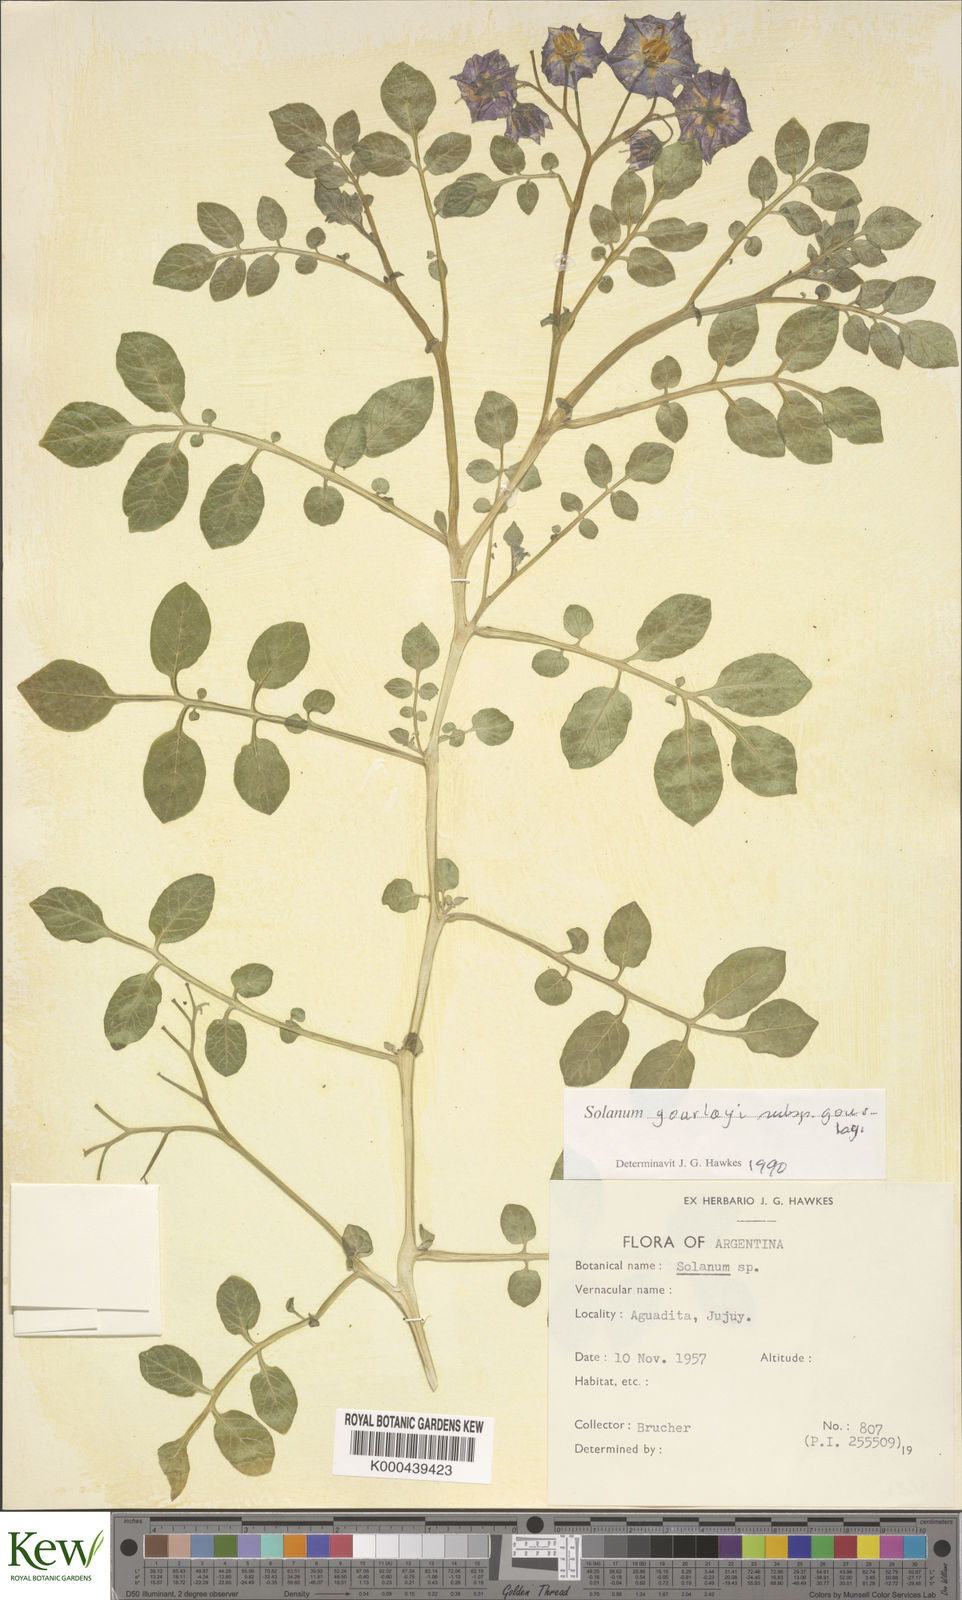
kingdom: Plantae
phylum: Tracheophyta
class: Magnoliopsida
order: Solanales
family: Solanaceae
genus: Solanum
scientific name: Solanum brevicaule
